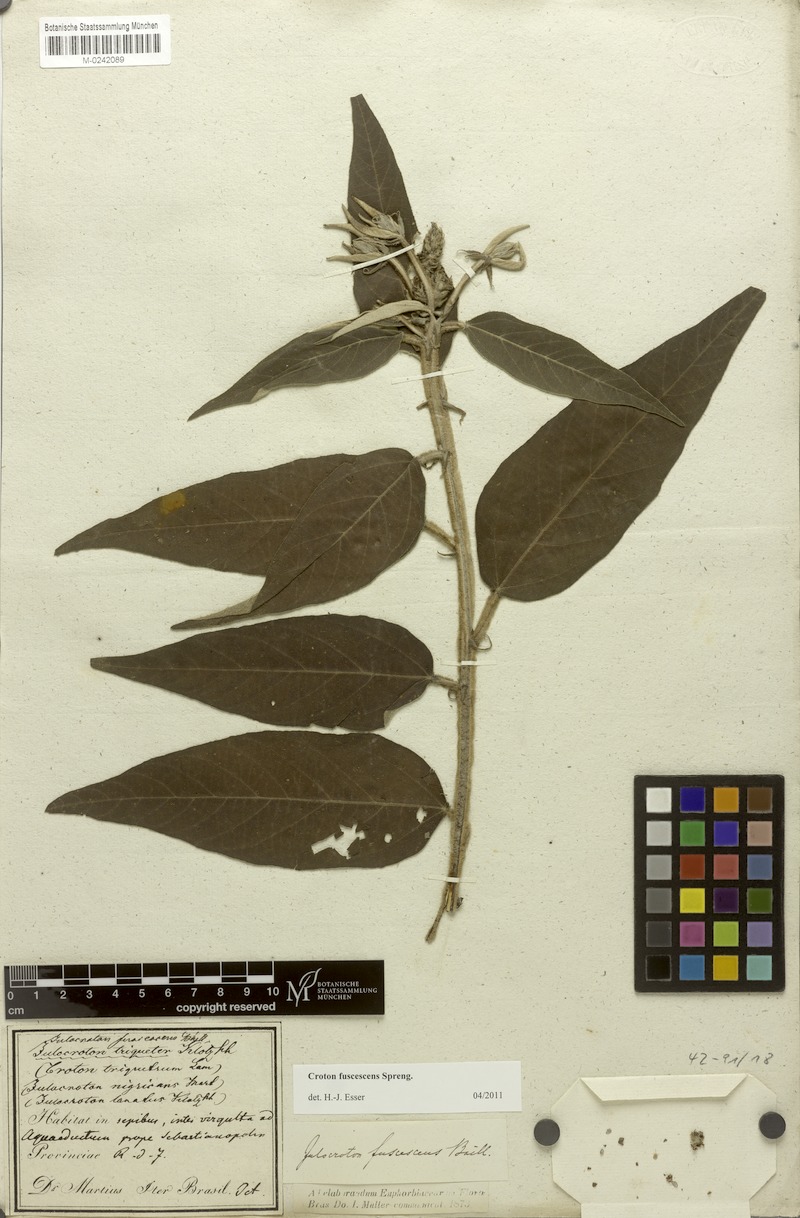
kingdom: Plantae
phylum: Tracheophyta
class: Magnoliopsida
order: Malpighiales
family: Euphorbiaceae
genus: Croton
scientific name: Croton gnaphaloides
